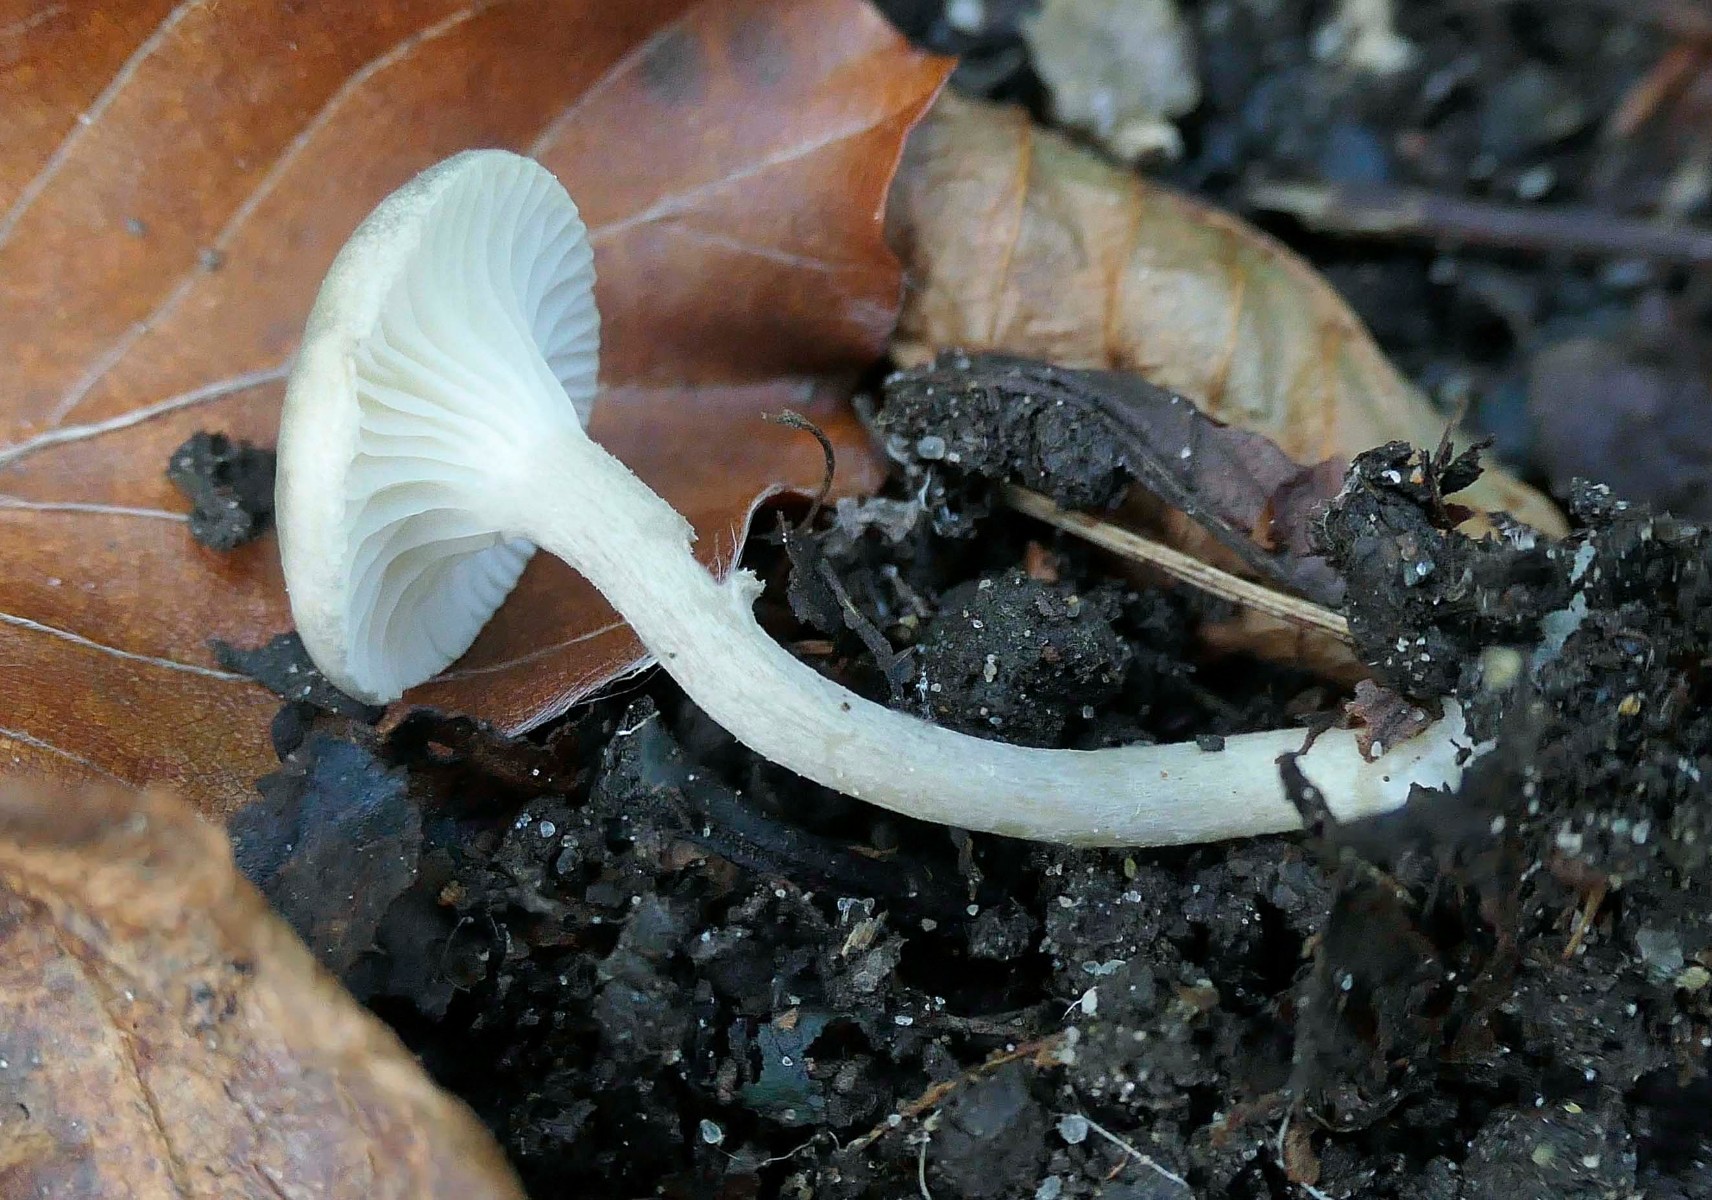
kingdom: Fungi
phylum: Basidiomycota
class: Agaricomycetes
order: Agaricales
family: Hygrophoraceae
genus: Spodocybe
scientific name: Spodocybe trulliformis
